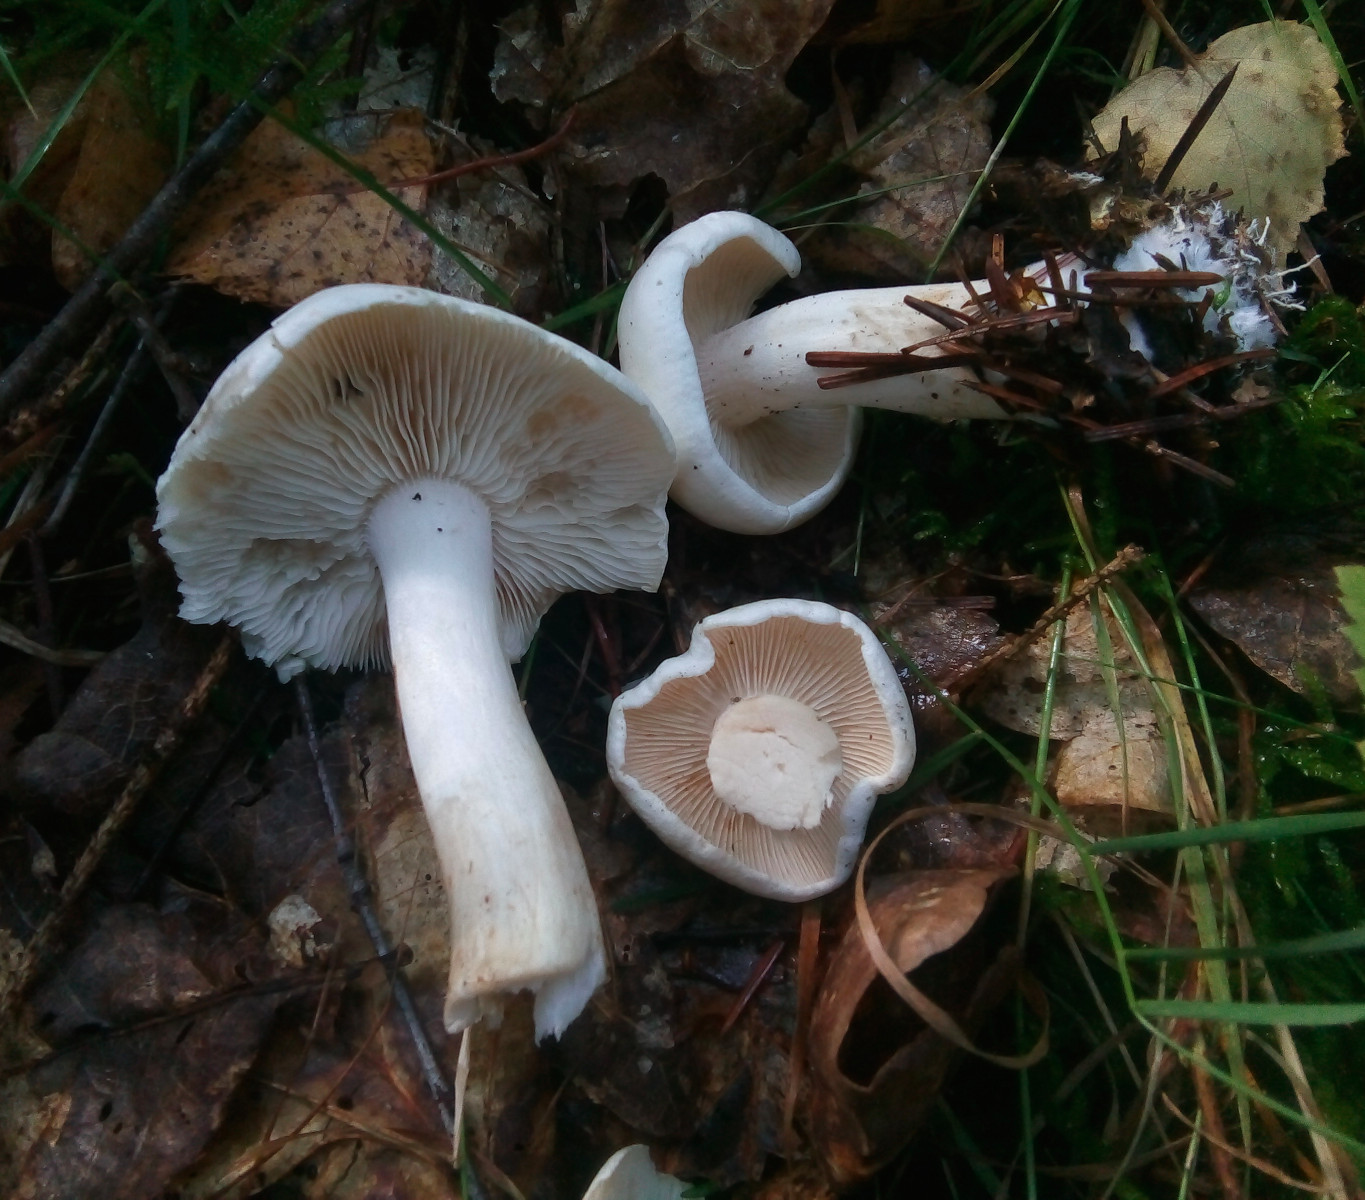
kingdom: Fungi
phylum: Basidiomycota
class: Agaricomycetes
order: Agaricales
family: Tricholomataceae
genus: Tricholoma
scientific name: Tricholoma stiparophyllum
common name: hvid ridderhat
